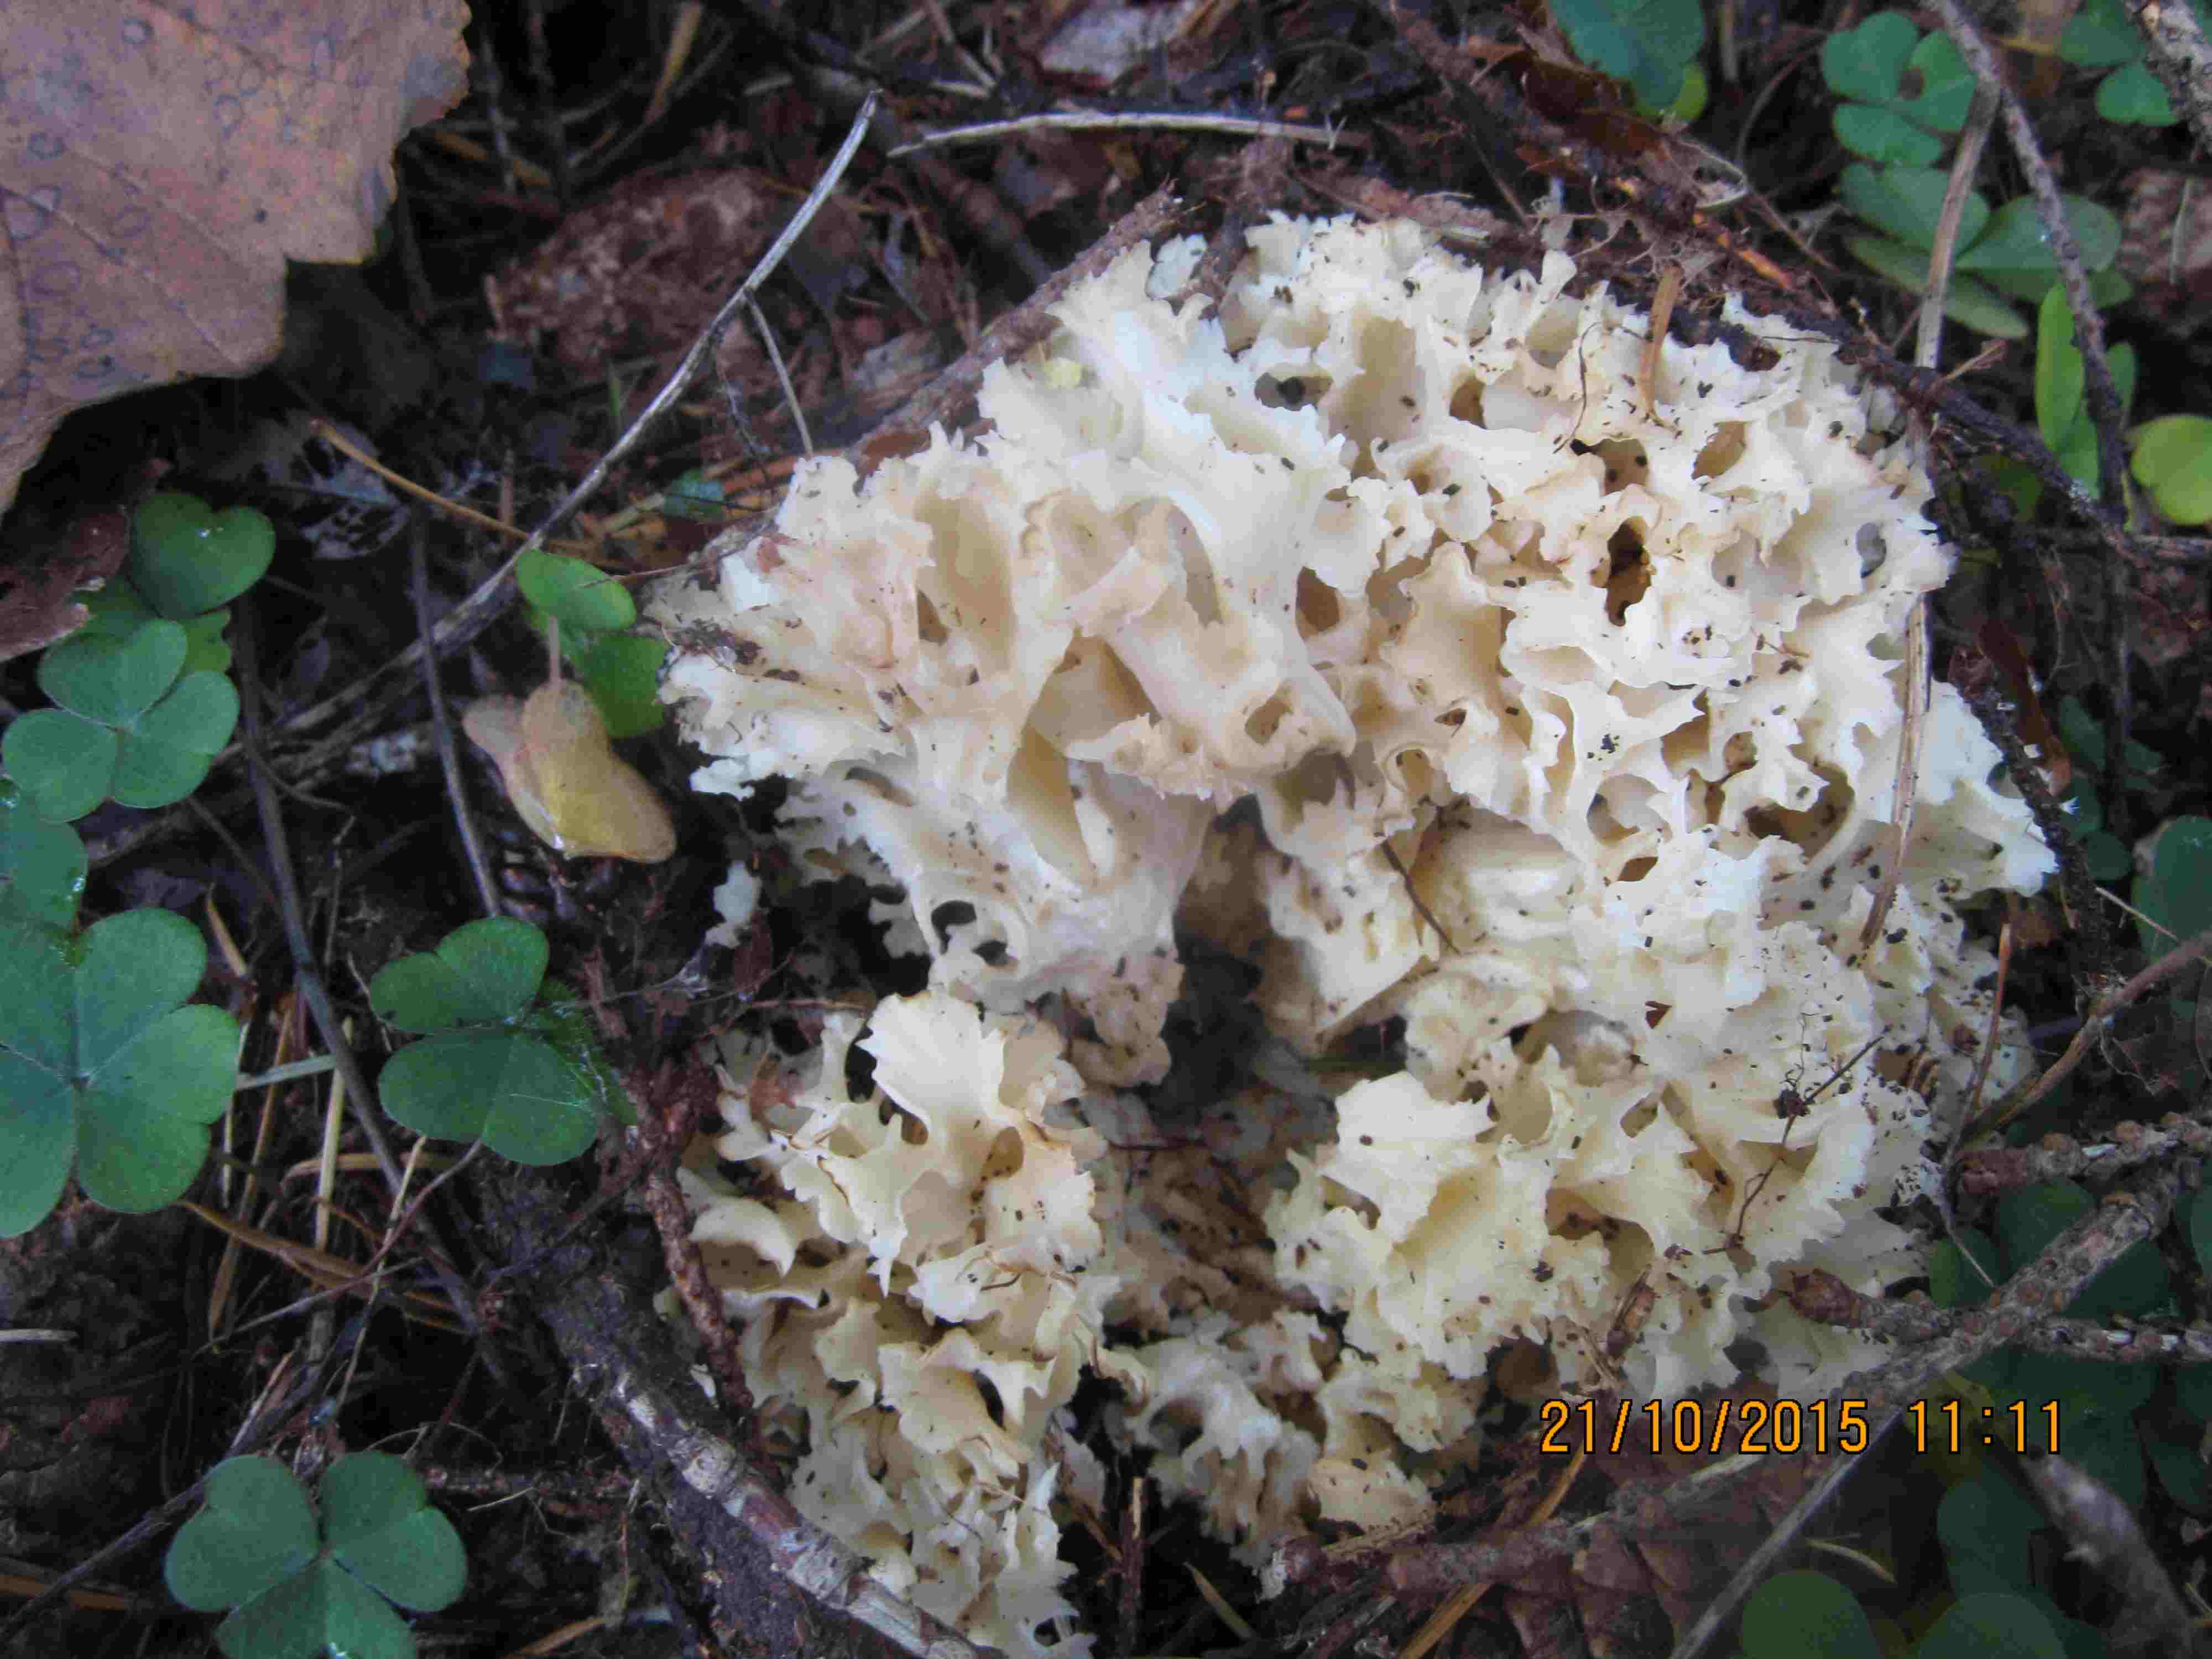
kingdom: Fungi
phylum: Basidiomycota
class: Agaricomycetes
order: Polyporales
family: Sparassidaceae
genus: Sparassis
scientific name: Sparassis crispa
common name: kruset blomkålssvamp
